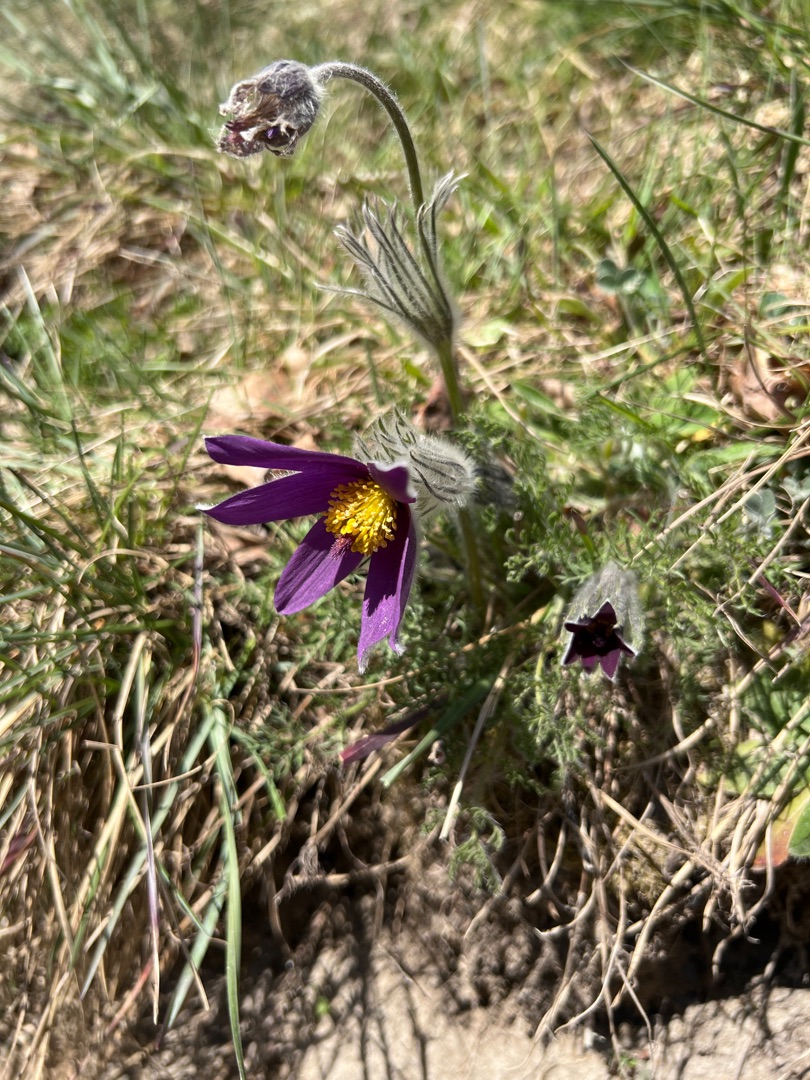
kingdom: Plantae
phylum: Tracheophyta
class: Magnoliopsida
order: Ranunculales
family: Ranunculaceae
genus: Pulsatilla
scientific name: Pulsatilla vulgaris
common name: Opret kobjælde
